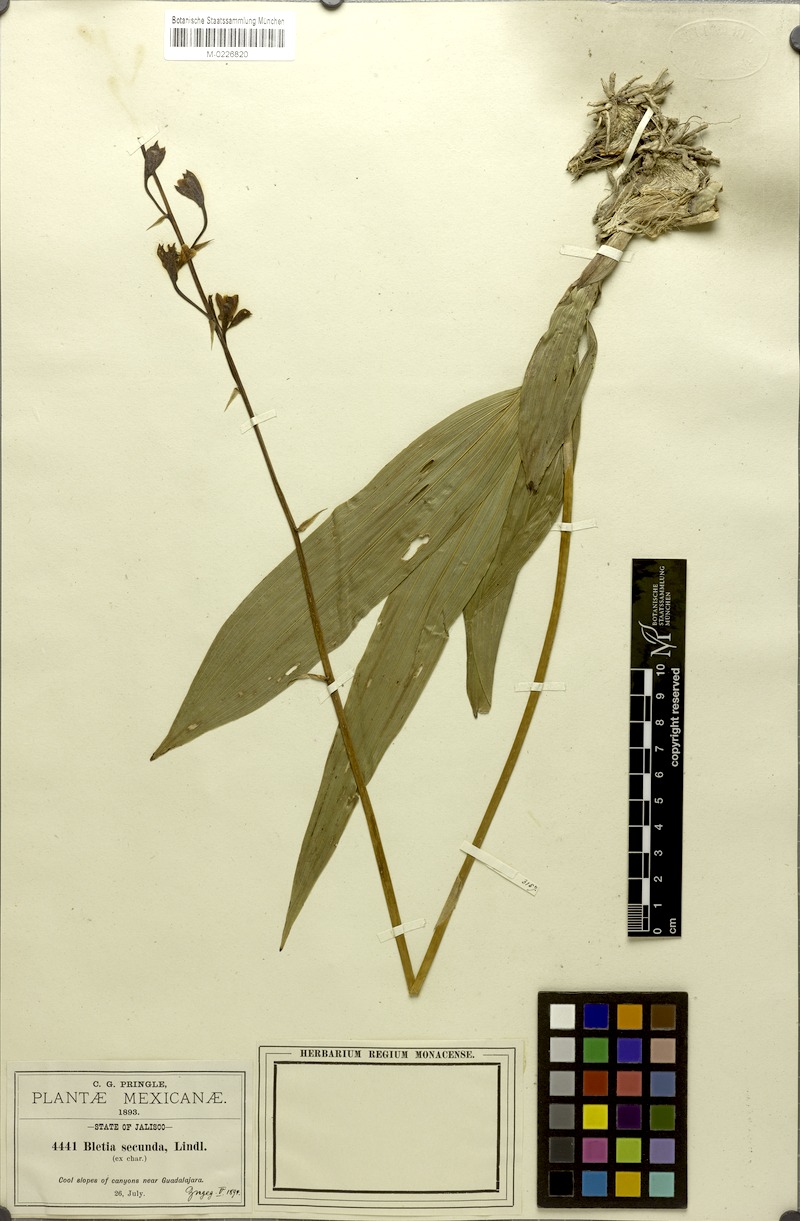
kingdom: Plantae
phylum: Tracheophyta
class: Liliopsida
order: Asparagales
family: Orchidaceae
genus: Bletia
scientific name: Bletia punctata
